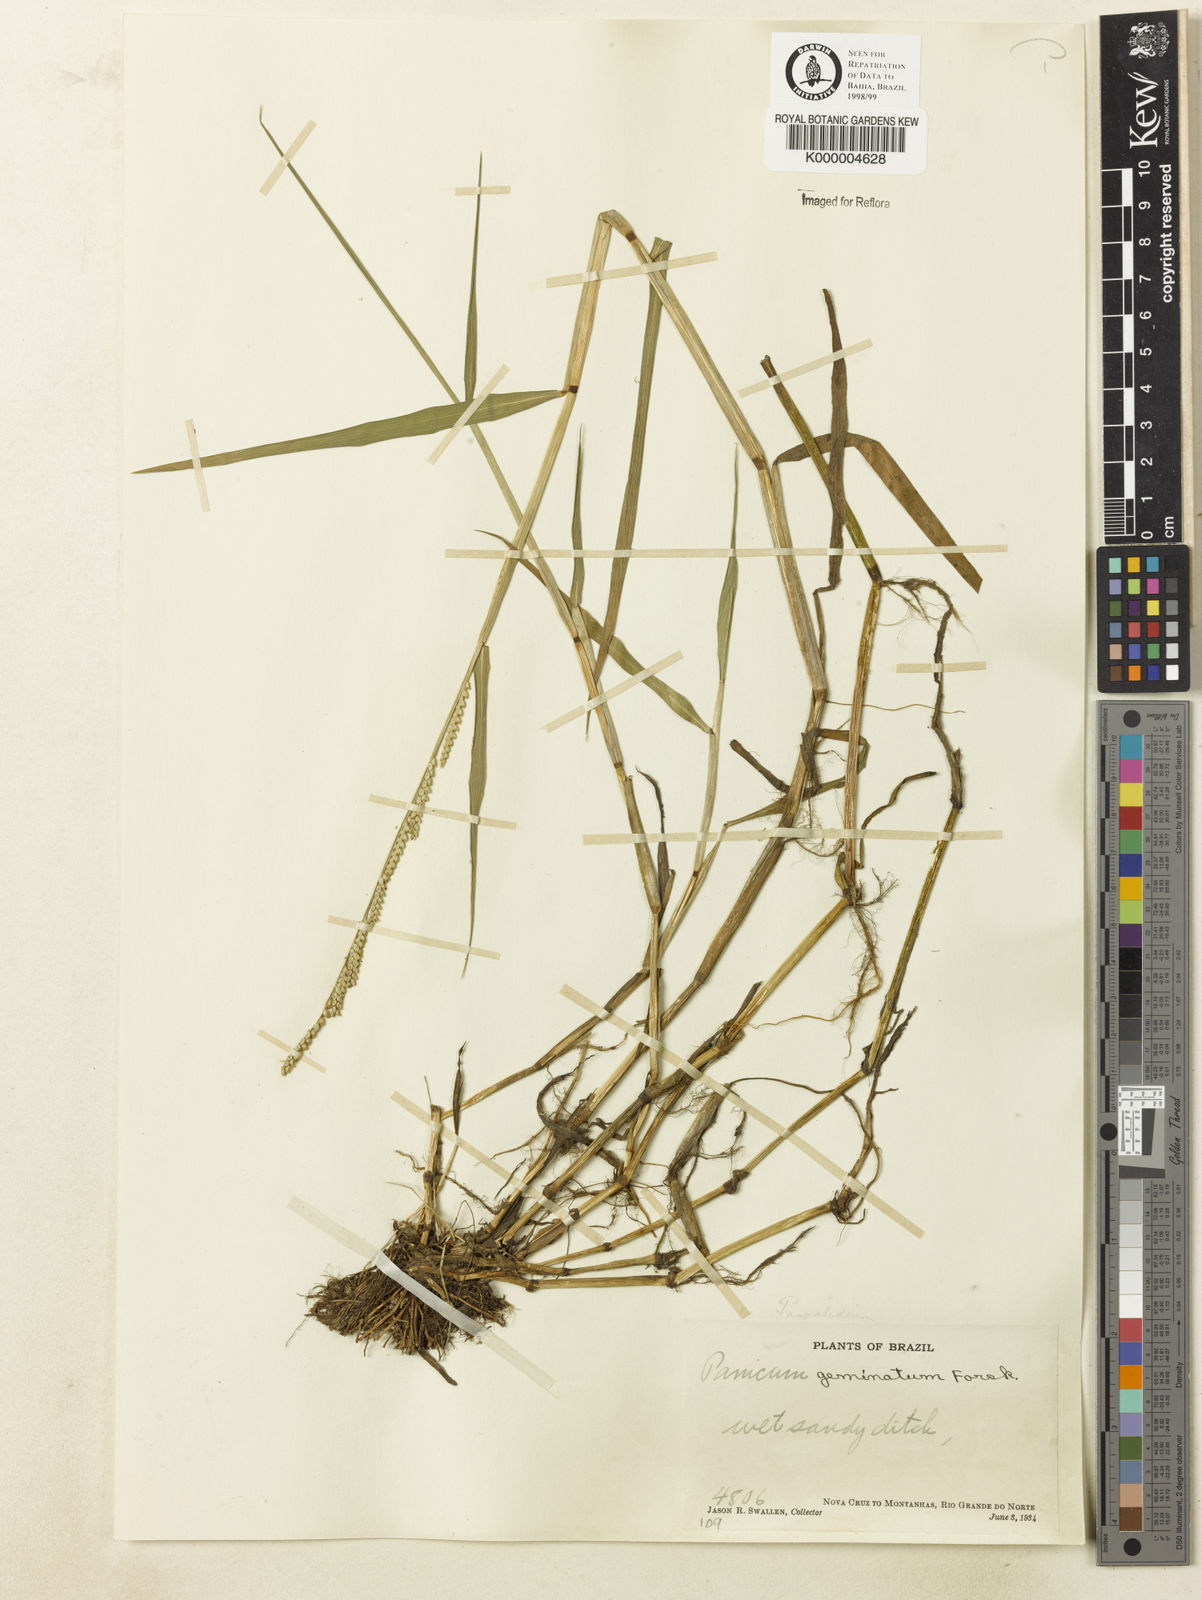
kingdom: Plantae
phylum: Tracheophyta
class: Liliopsida
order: Poales
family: Poaceae
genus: Setaria
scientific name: Setaria geminata
